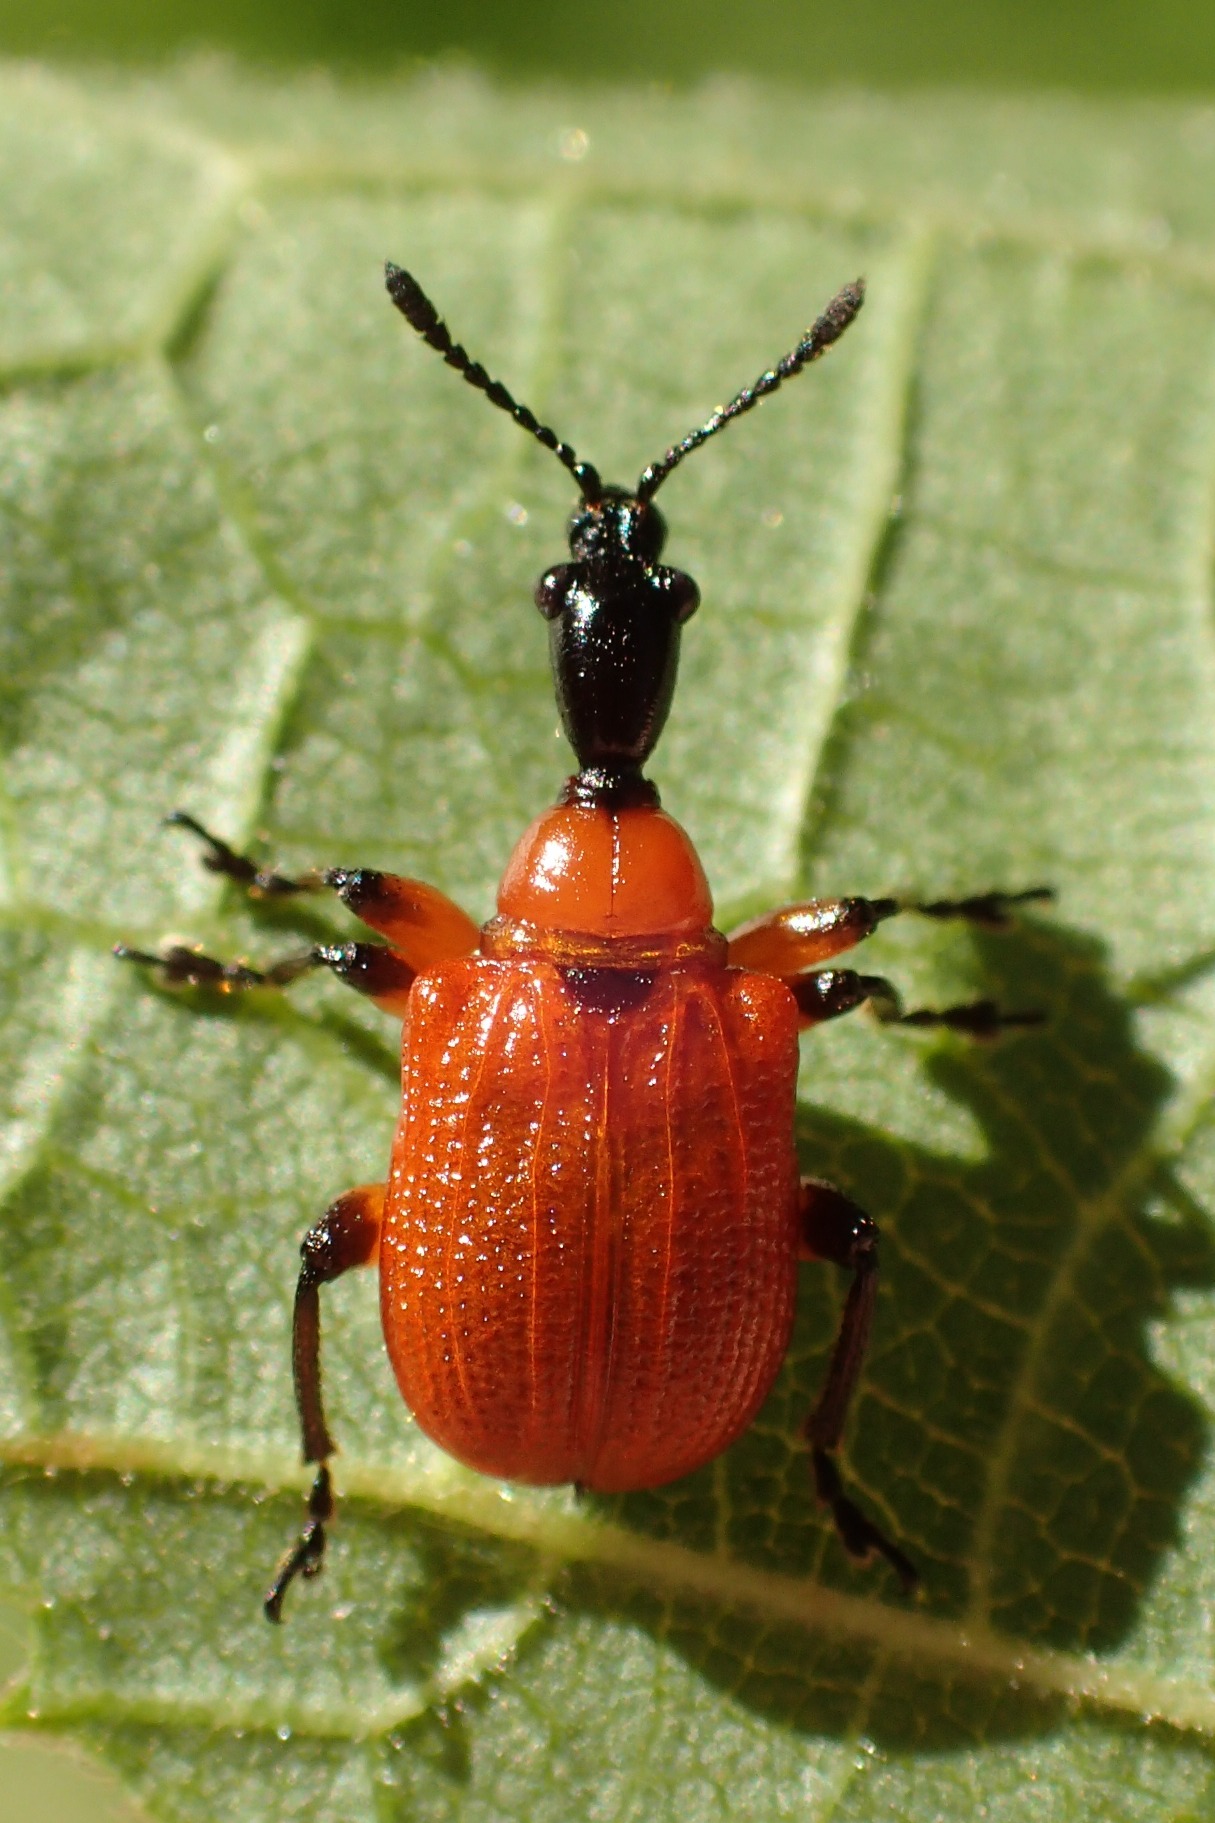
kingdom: Animalia
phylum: Arthropoda
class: Insecta
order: Coleoptera
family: Attelabidae
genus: Apoderus
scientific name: Apoderus coryli
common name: Hasselbladruller
